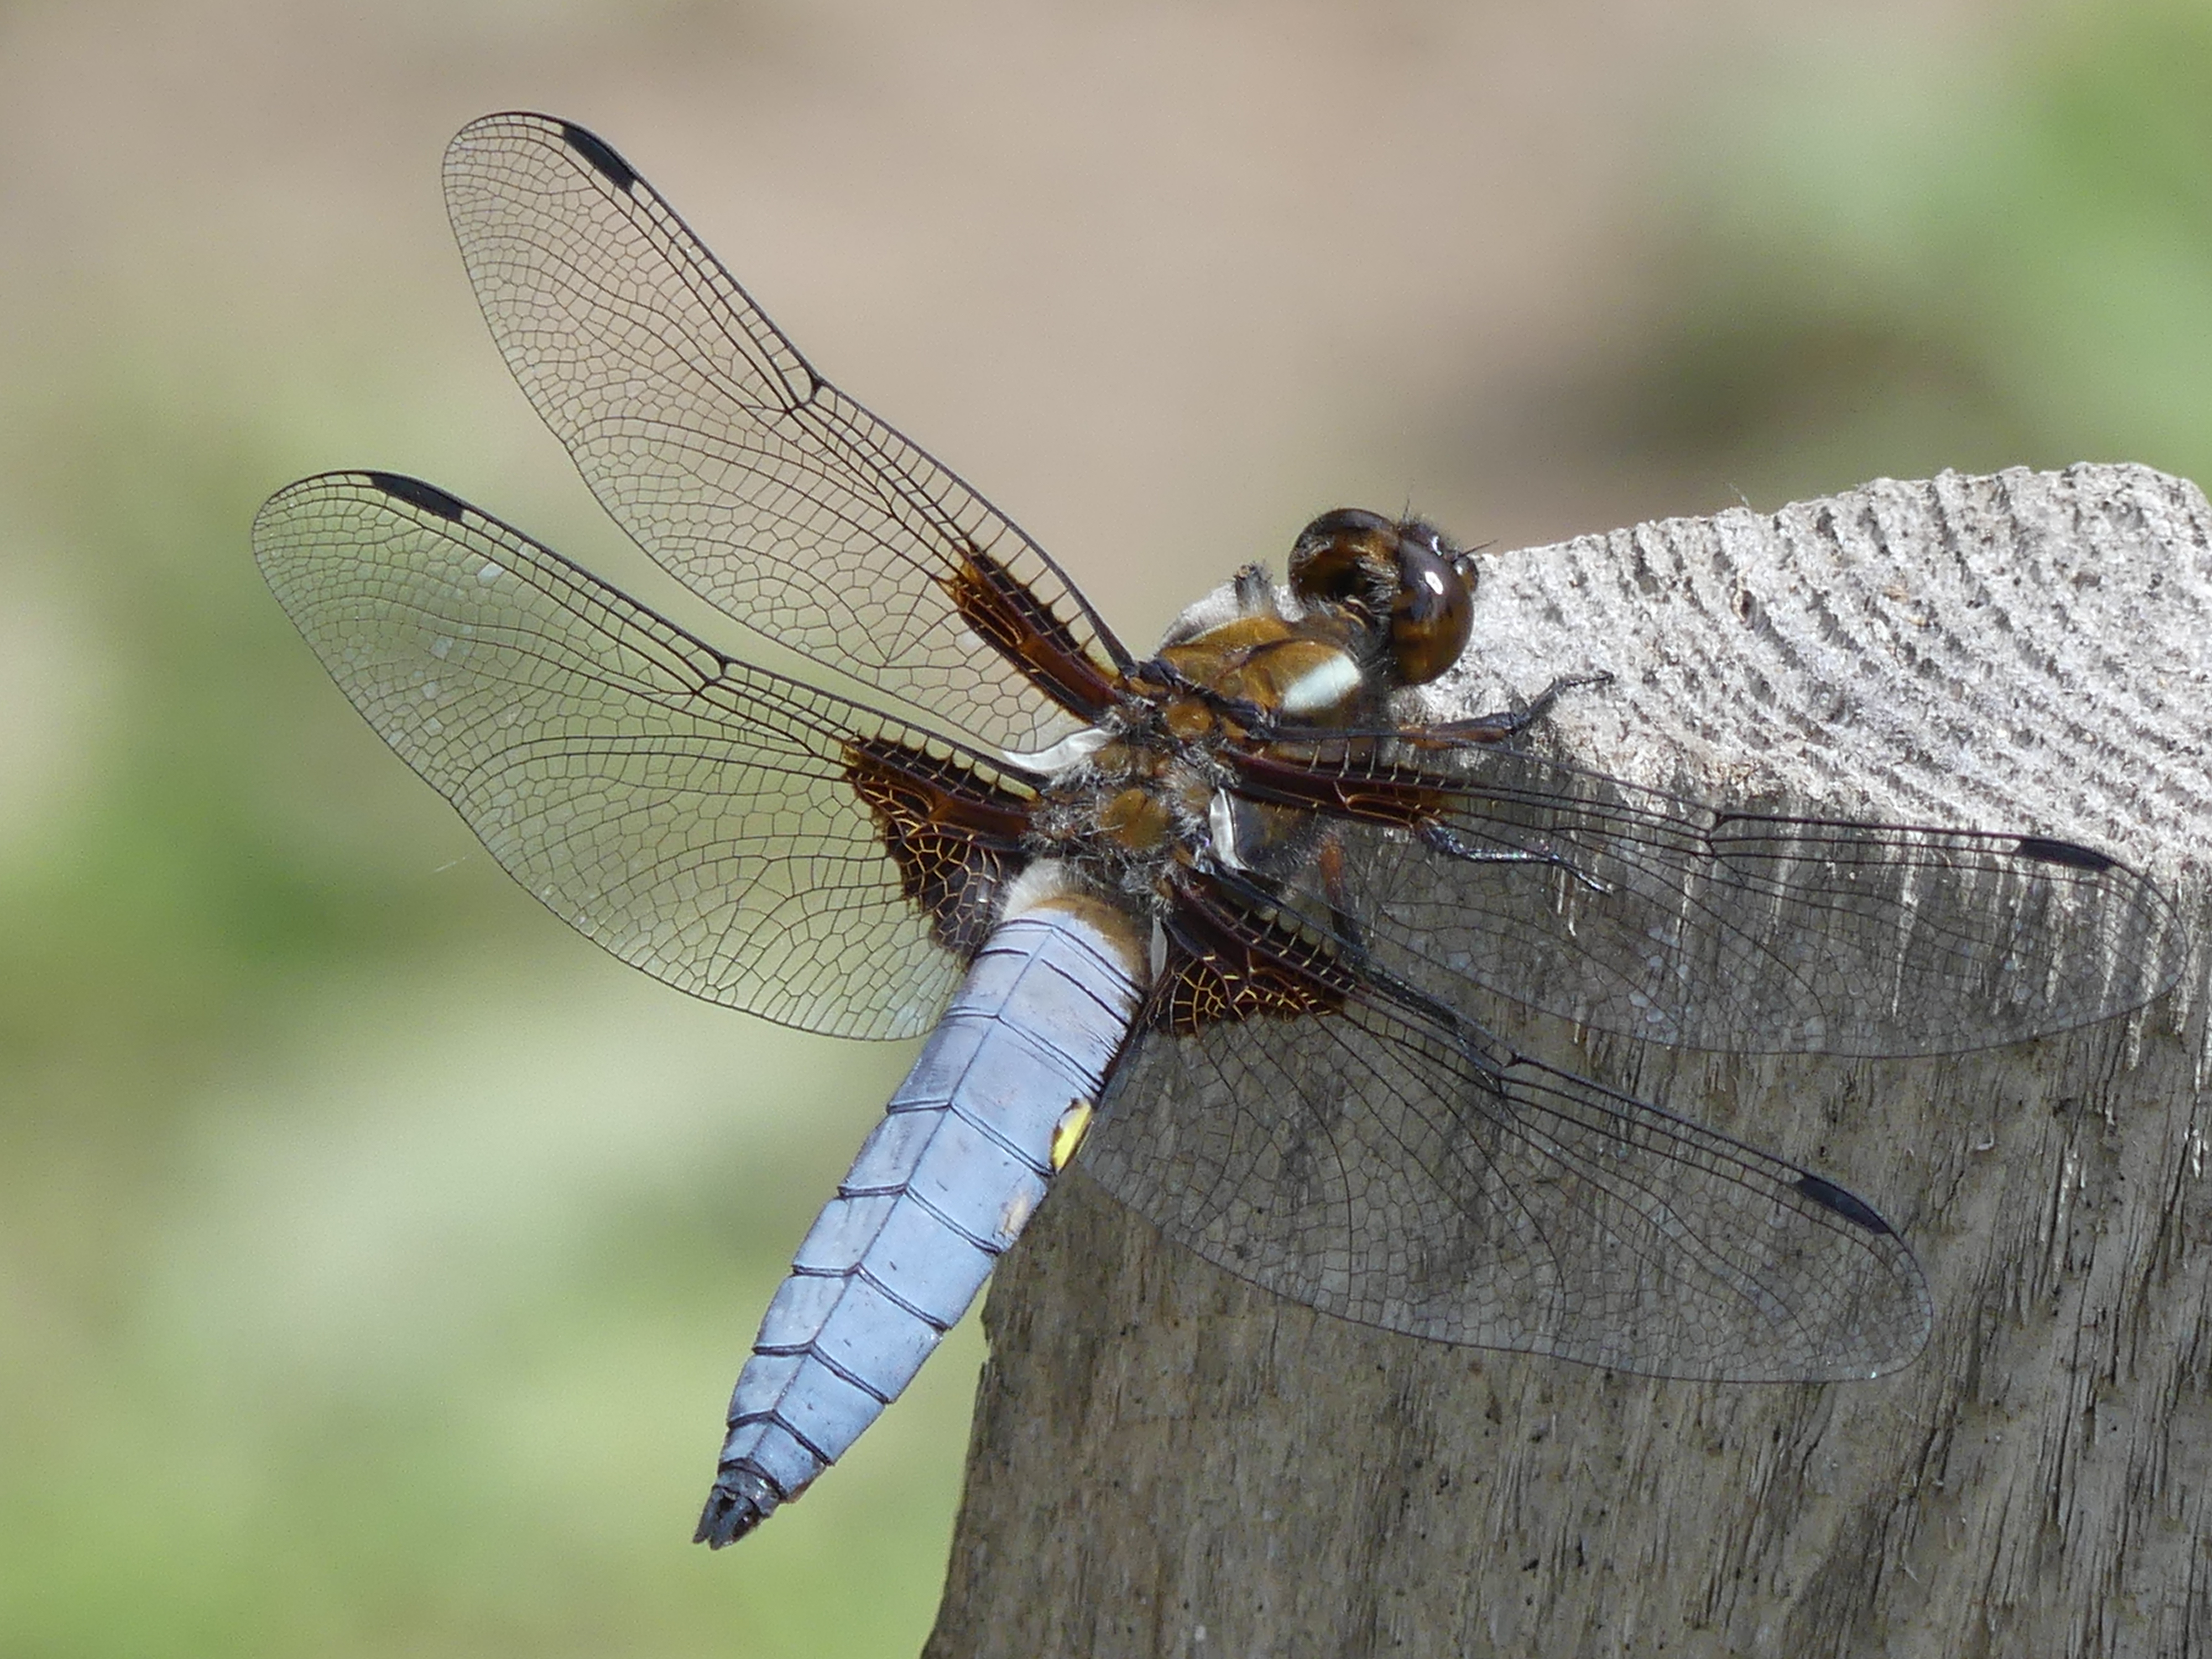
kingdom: Animalia
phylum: Arthropoda
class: Insecta
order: Odonata
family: Libellulidae
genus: Libellula
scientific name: Libellula depressa
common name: Broad-bodied chaser
